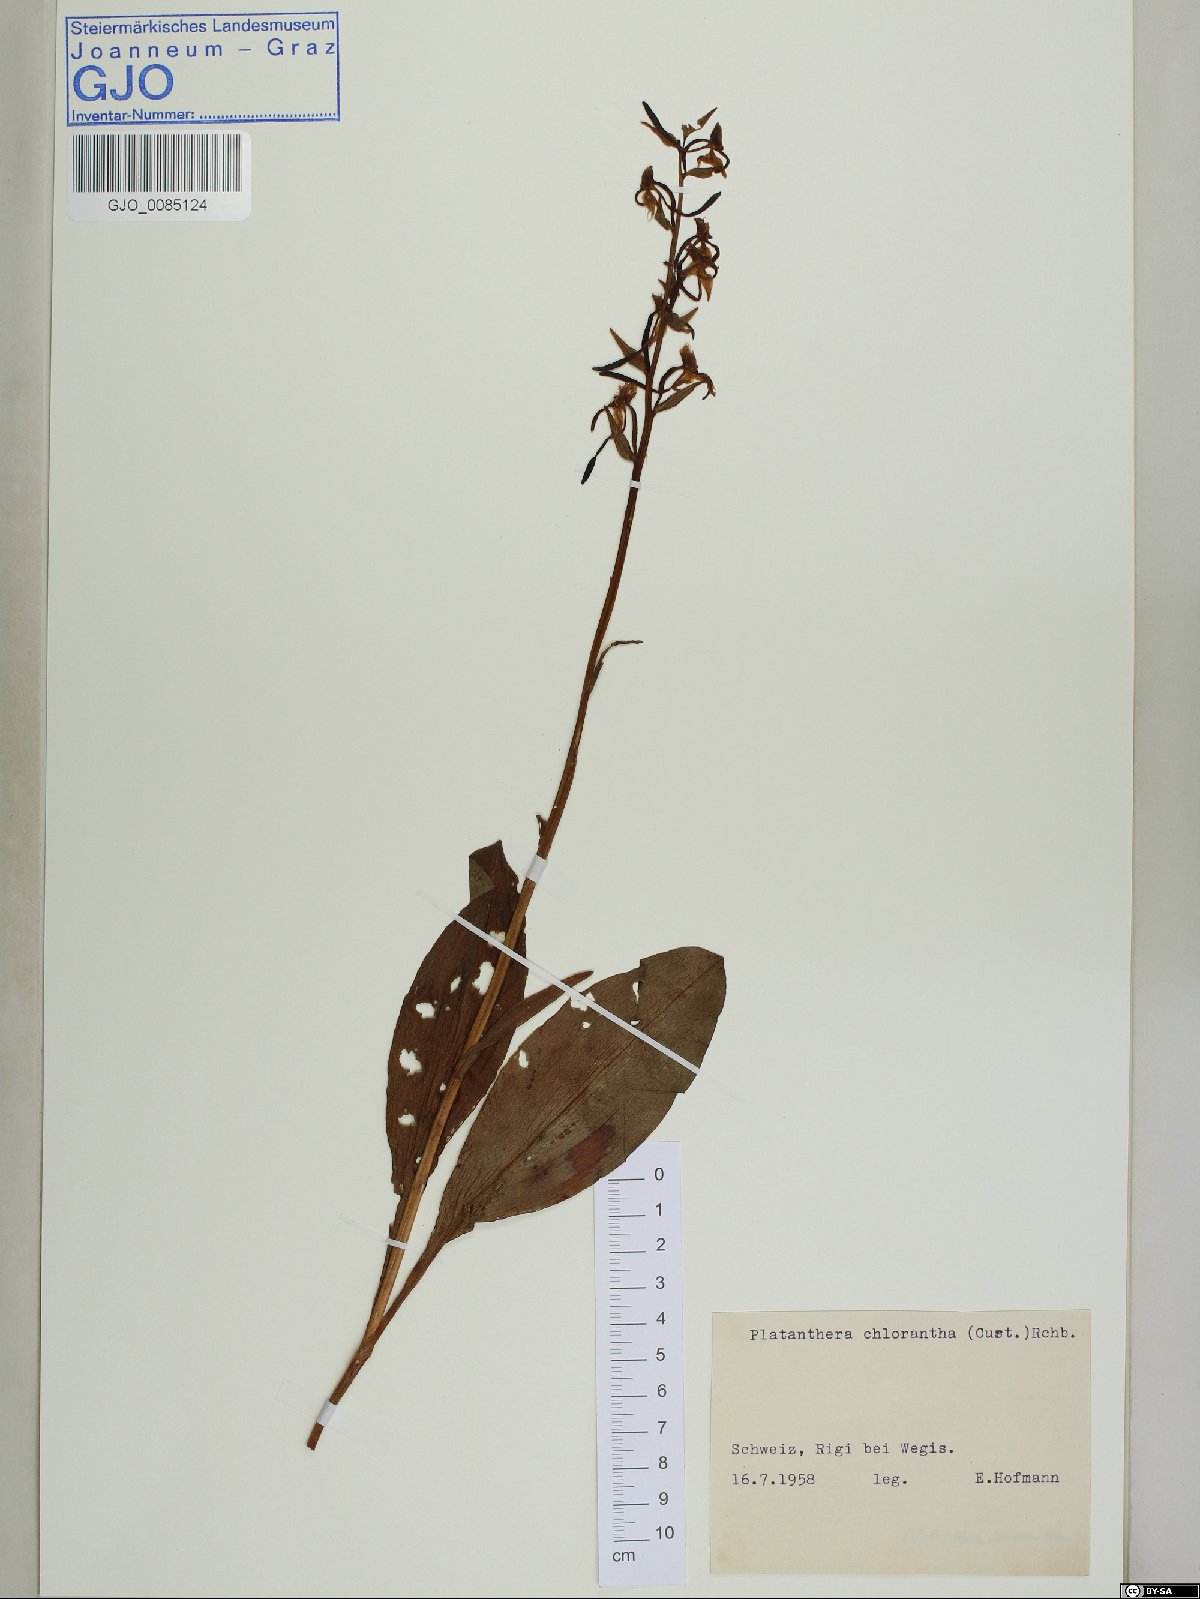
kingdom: Plantae
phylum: Tracheophyta
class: Liliopsida
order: Asparagales
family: Orchidaceae
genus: Platanthera
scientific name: Platanthera chlorantha
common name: Greater butterfly-orchid
